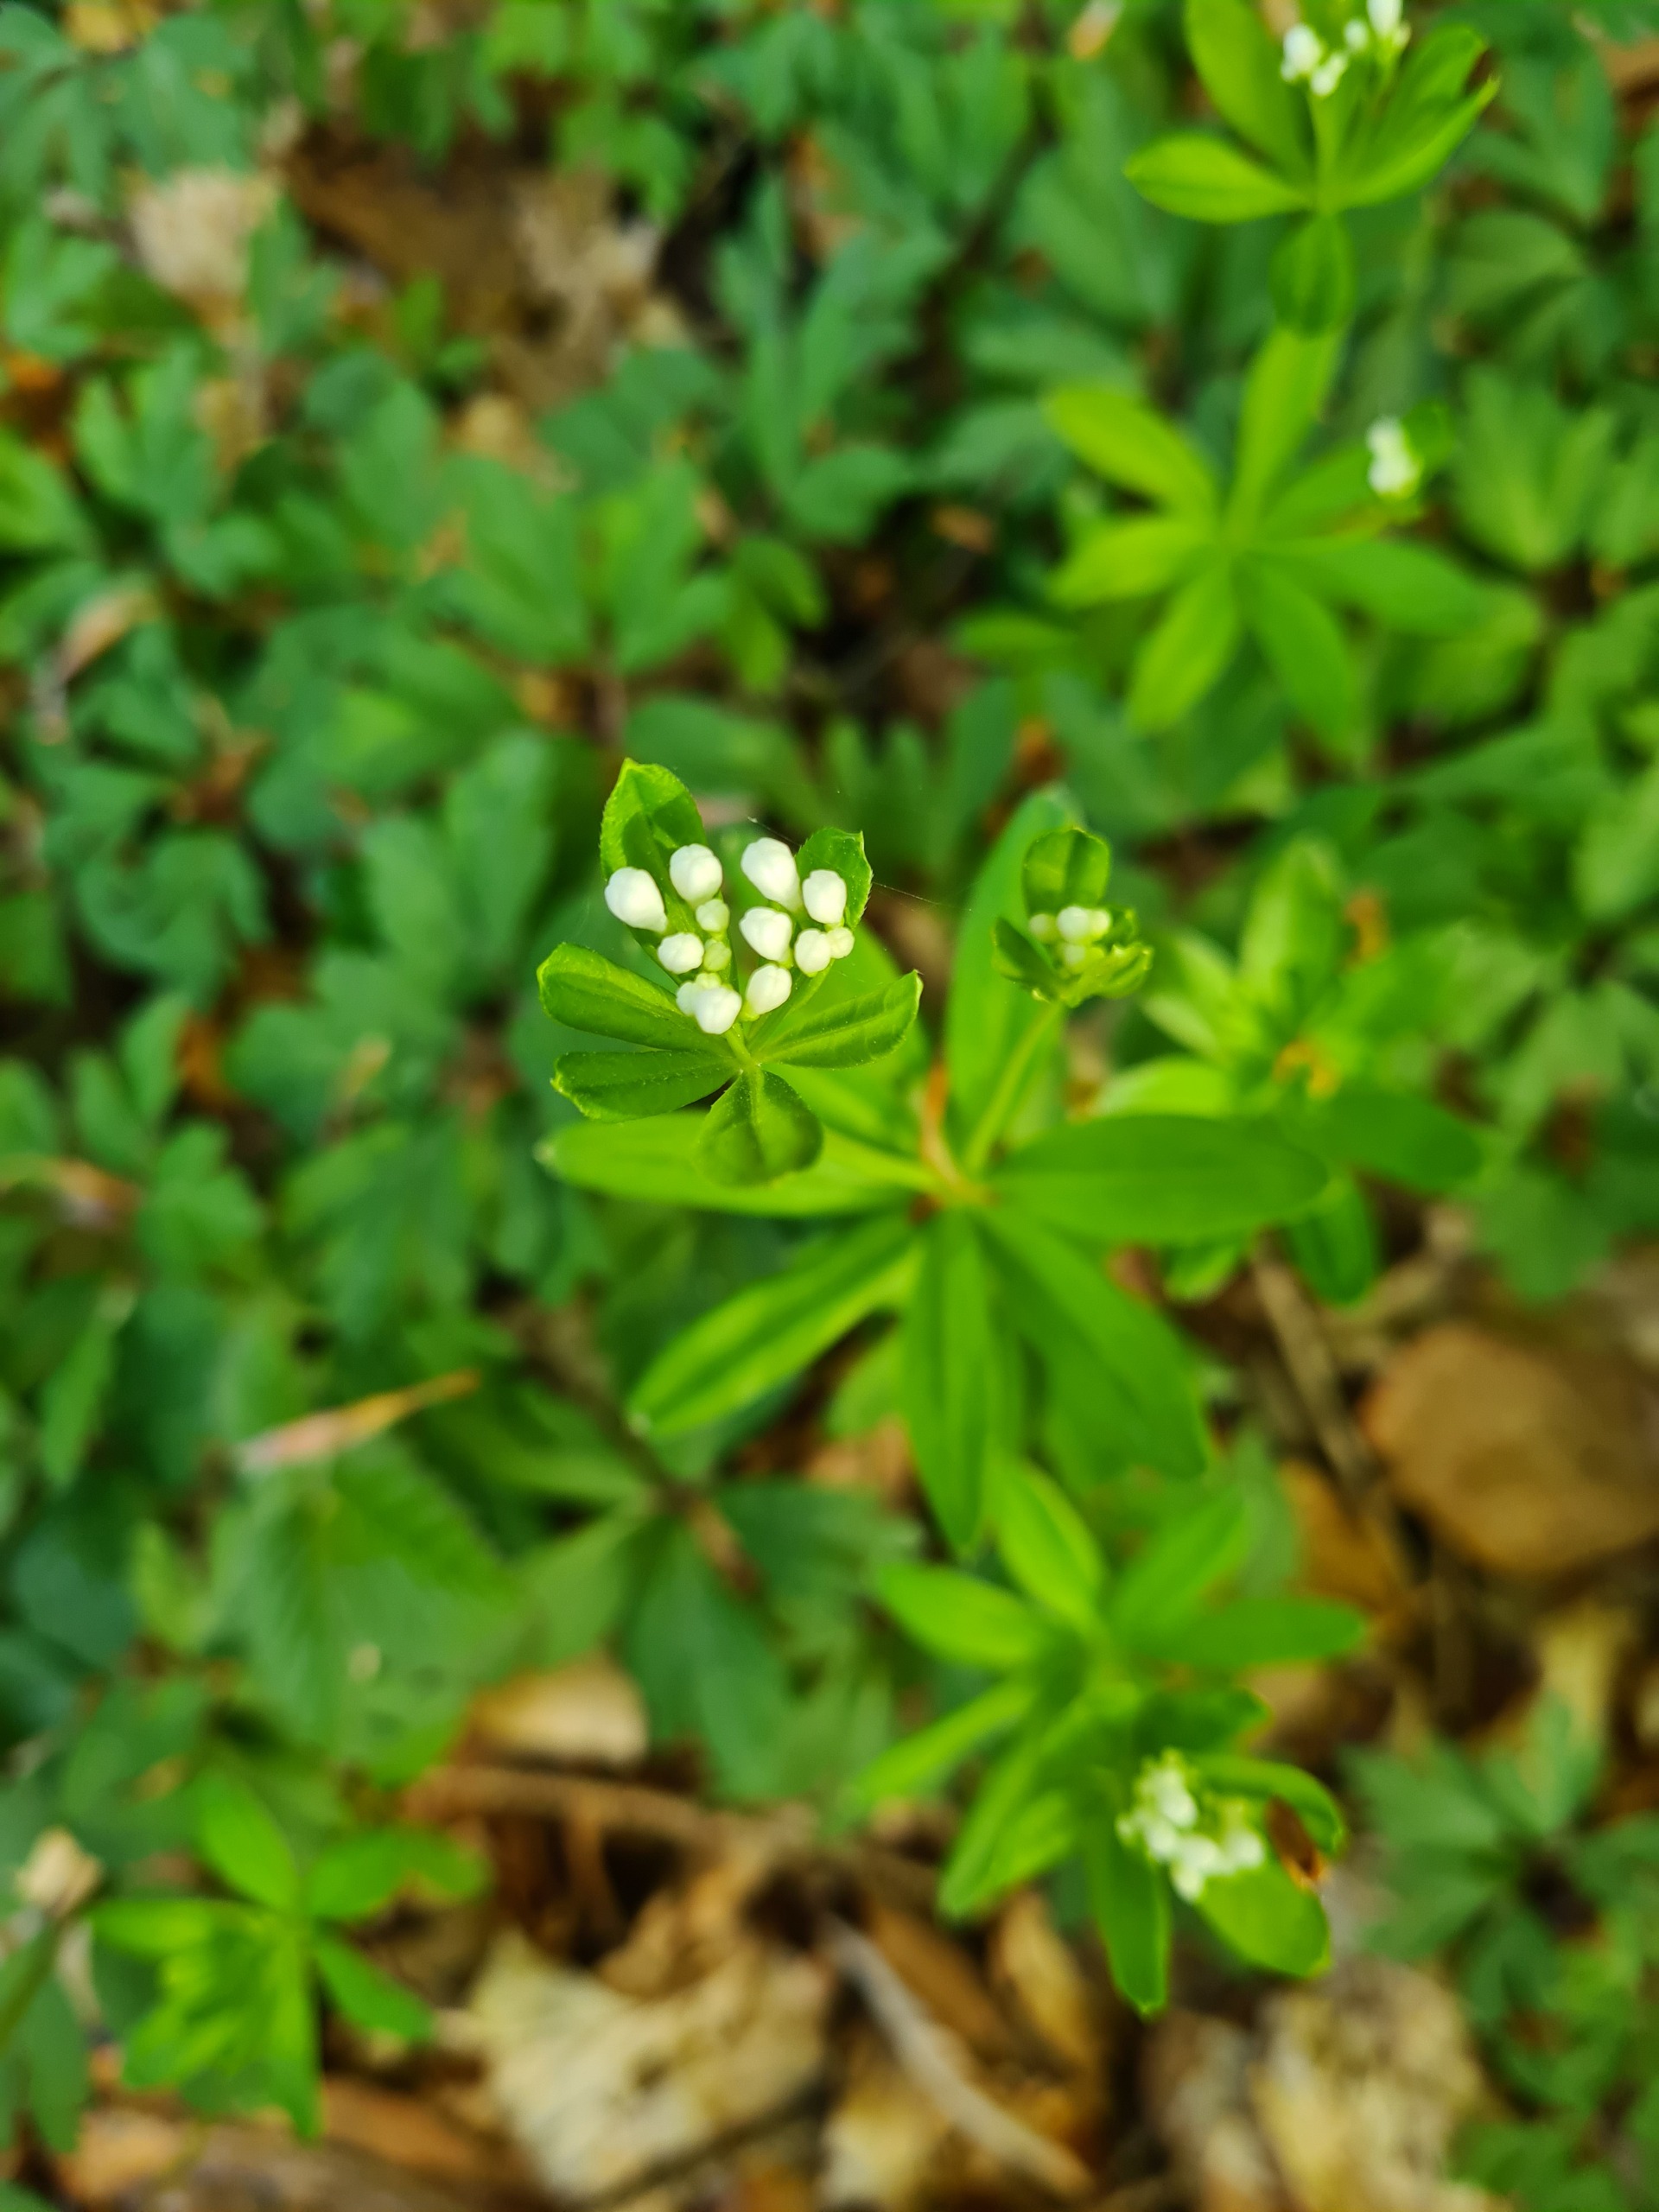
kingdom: Plantae
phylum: Tracheophyta
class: Magnoliopsida
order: Gentianales
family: Rubiaceae
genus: Galium
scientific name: Galium odoratum
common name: Skovmærke
